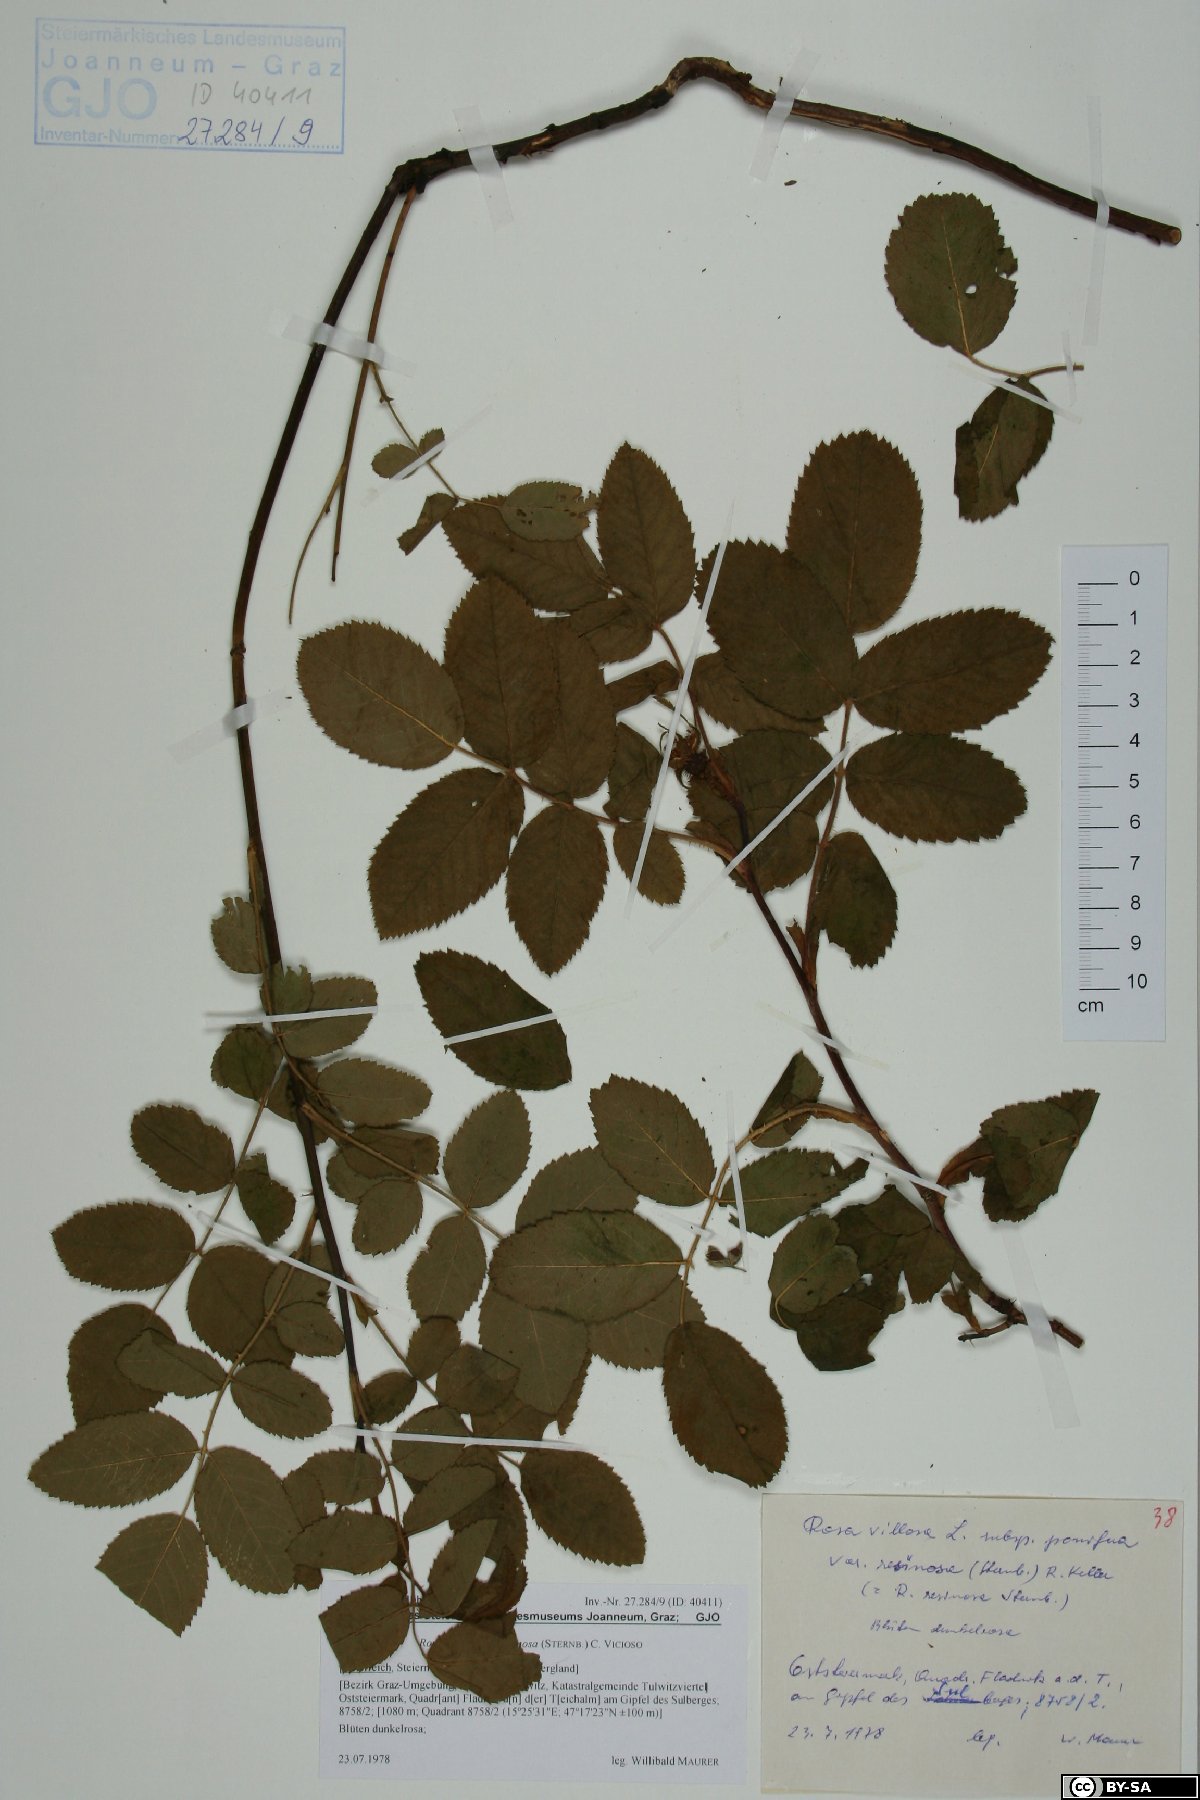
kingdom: Plantae
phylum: Tracheophyta
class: Magnoliopsida
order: Rosales
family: Rosaceae
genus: Rosa
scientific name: Rosa villosa
